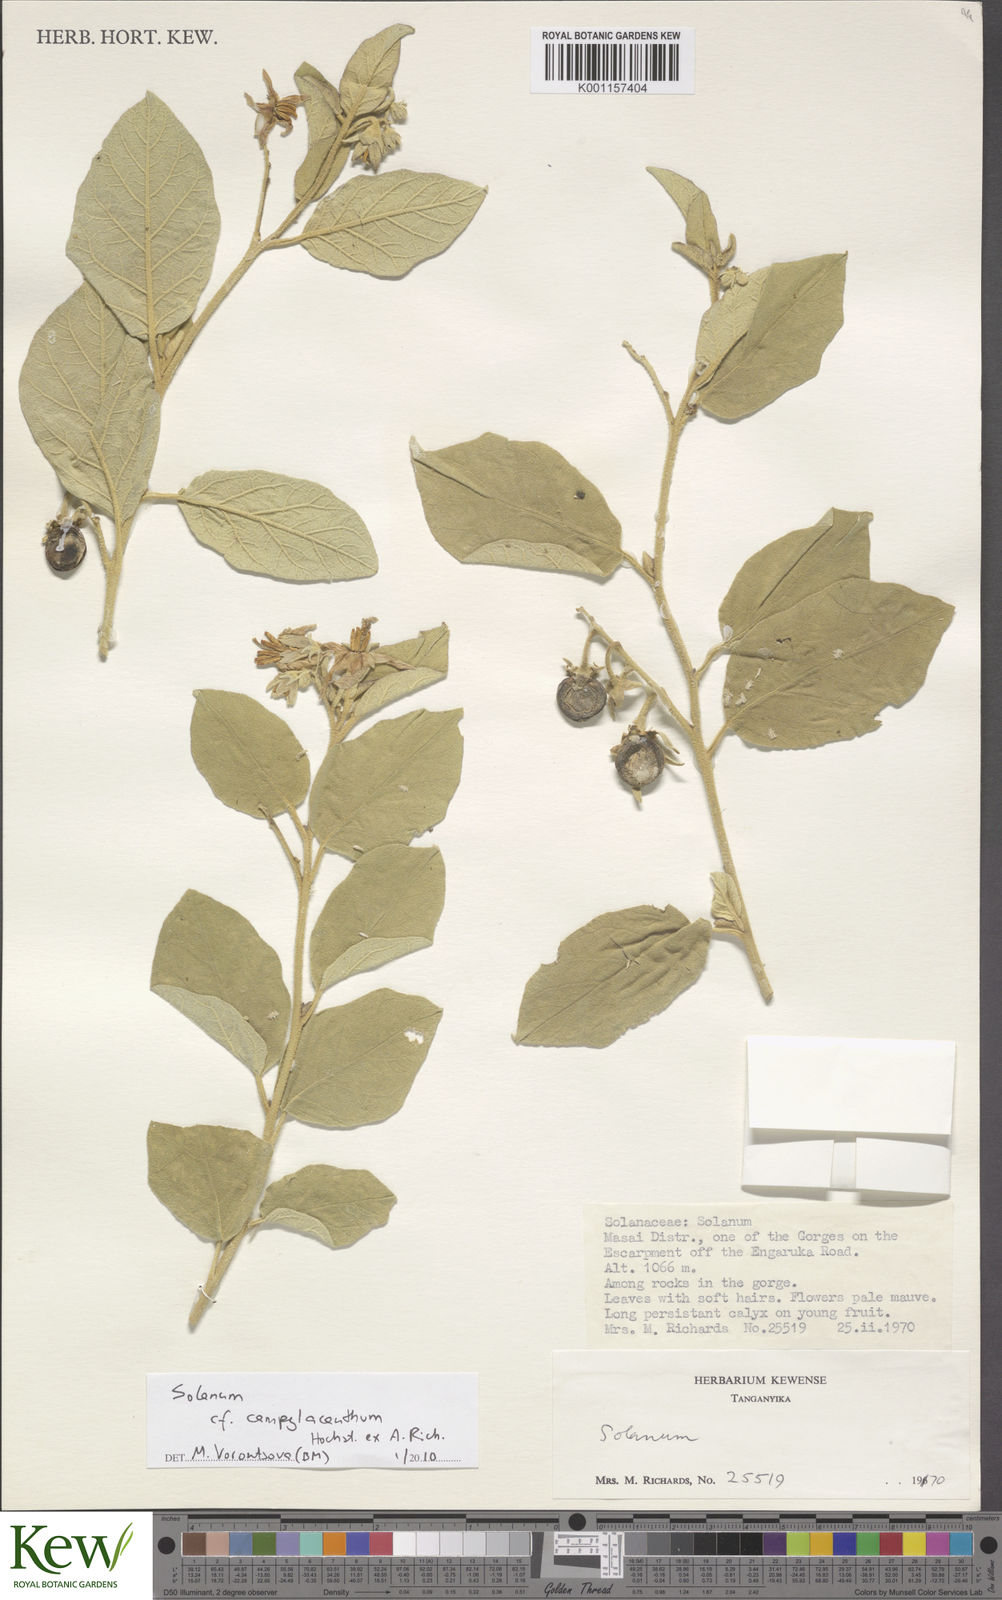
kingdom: Plantae
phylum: Tracheophyta
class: Magnoliopsida
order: Solanales
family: Solanaceae
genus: Solanum
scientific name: Solanum campylacanthum
